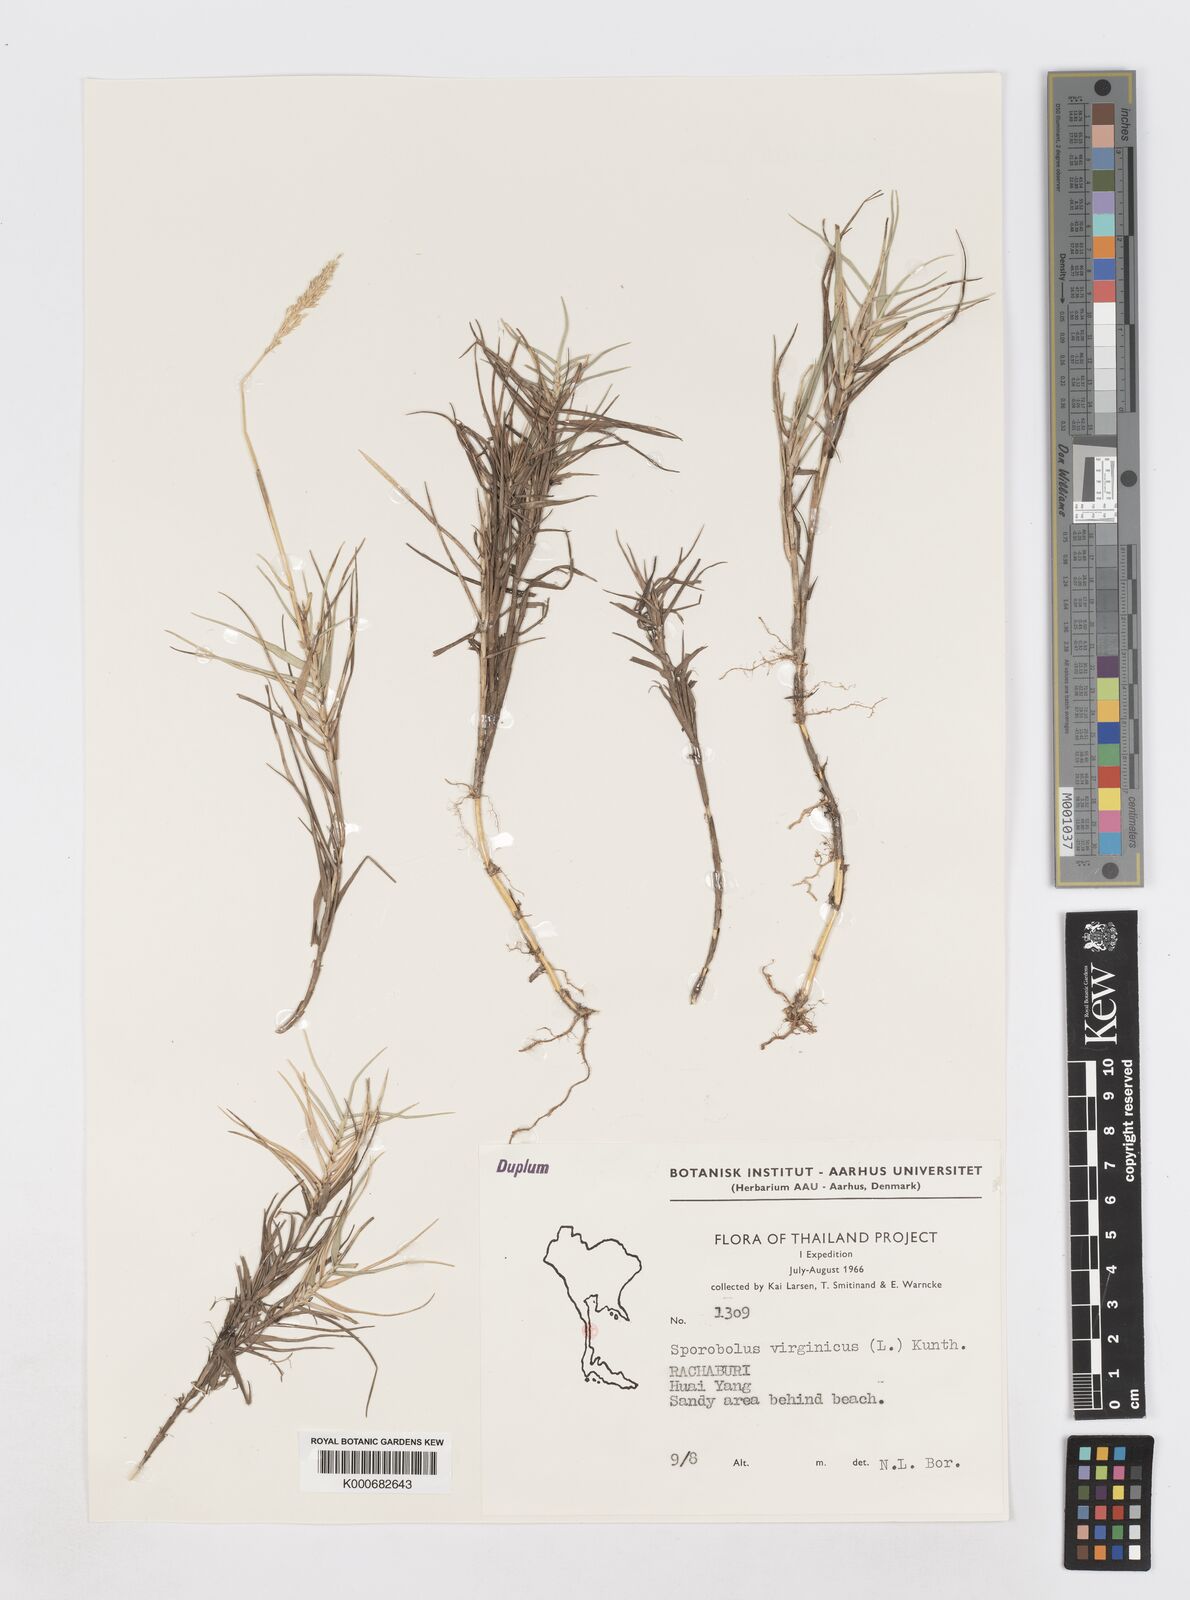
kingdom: Plantae
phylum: Tracheophyta
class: Liliopsida
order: Poales
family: Poaceae
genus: Sporobolus
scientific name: Sporobolus virginicus
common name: Beach dropseed
